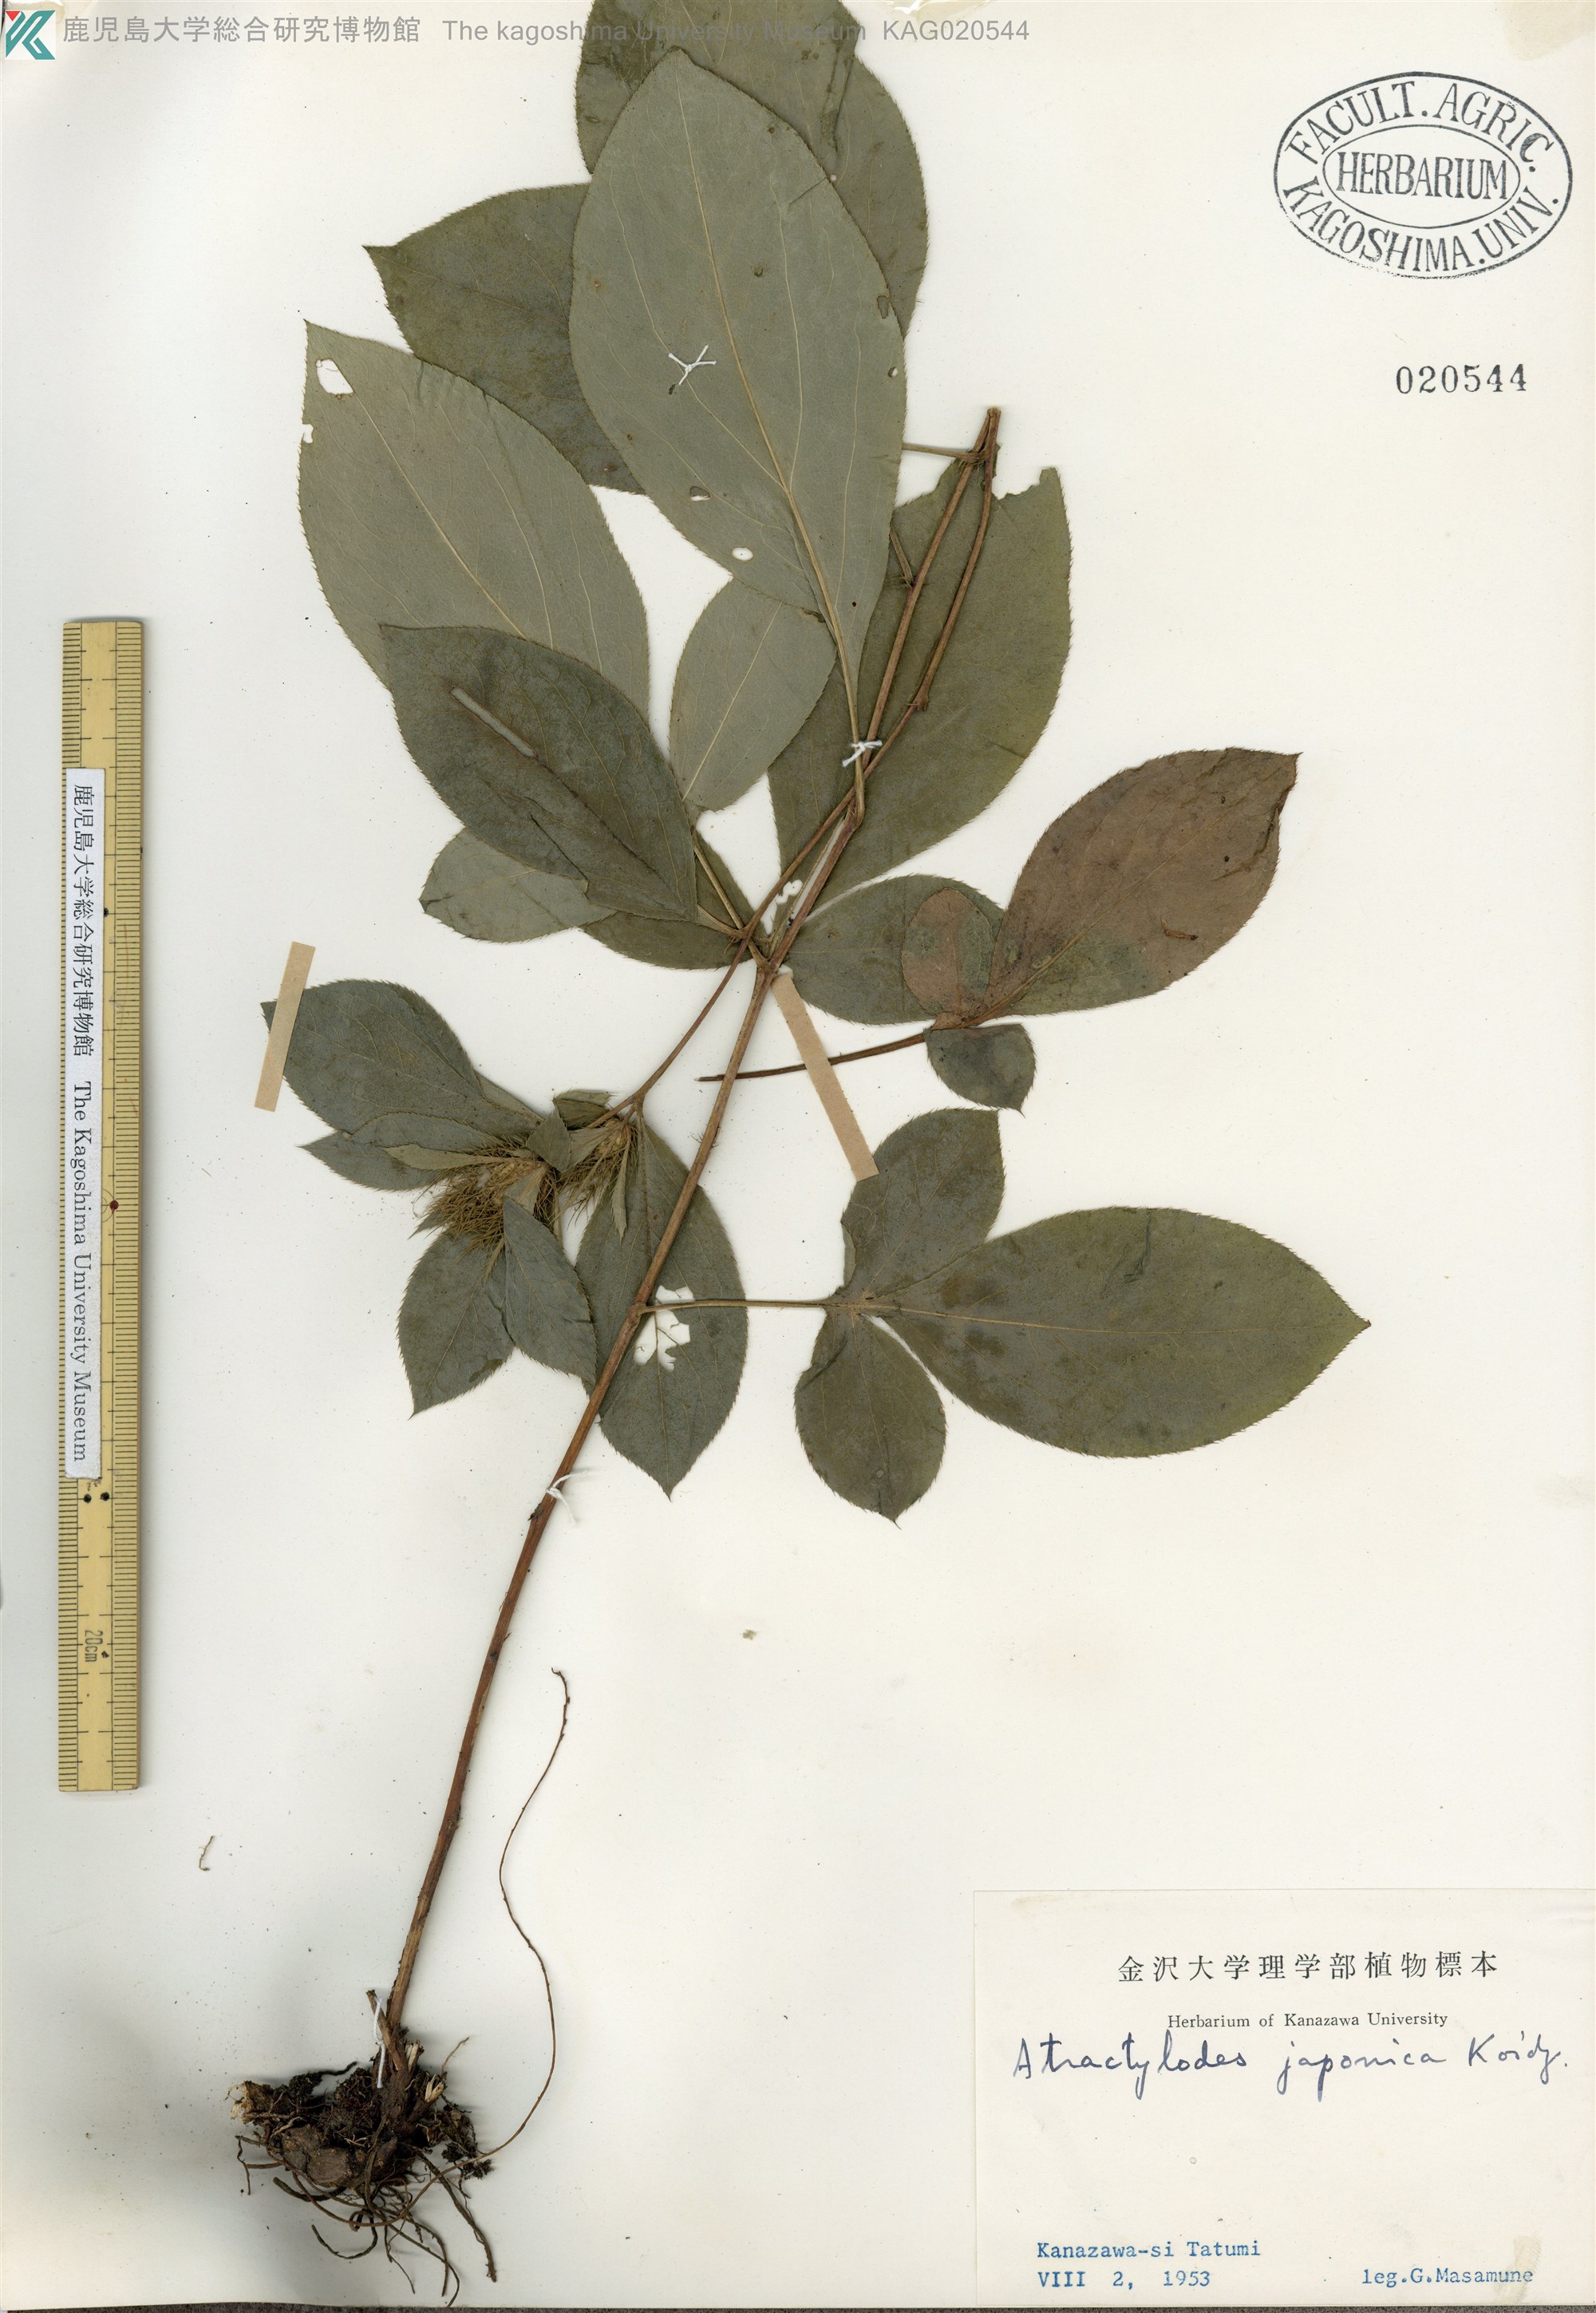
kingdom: Plantae
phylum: Tracheophyta
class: Magnoliopsida
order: Asterales
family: Asteraceae
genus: Atractylodes
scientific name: Atractylodes lancea
